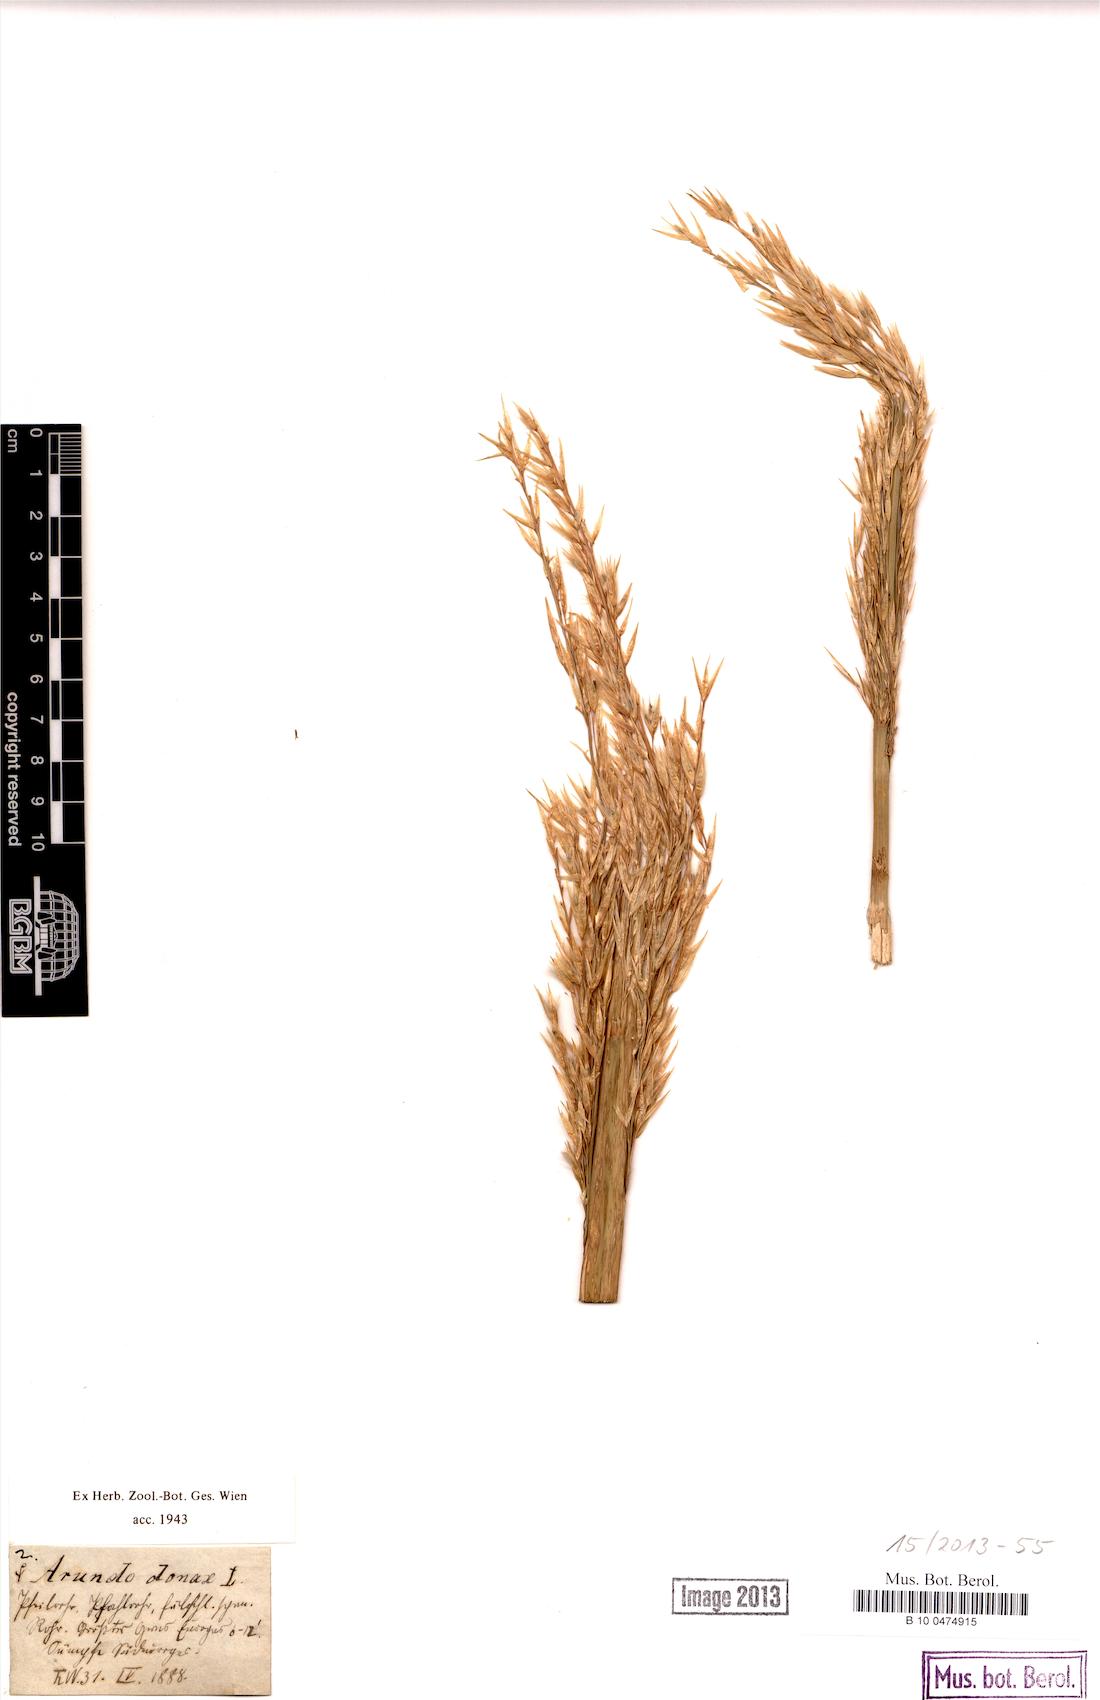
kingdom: Plantae
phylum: Tracheophyta
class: Liliopsida
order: Poales
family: Poaceae
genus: Arundo
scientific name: Arundo donax
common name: Giant reed
